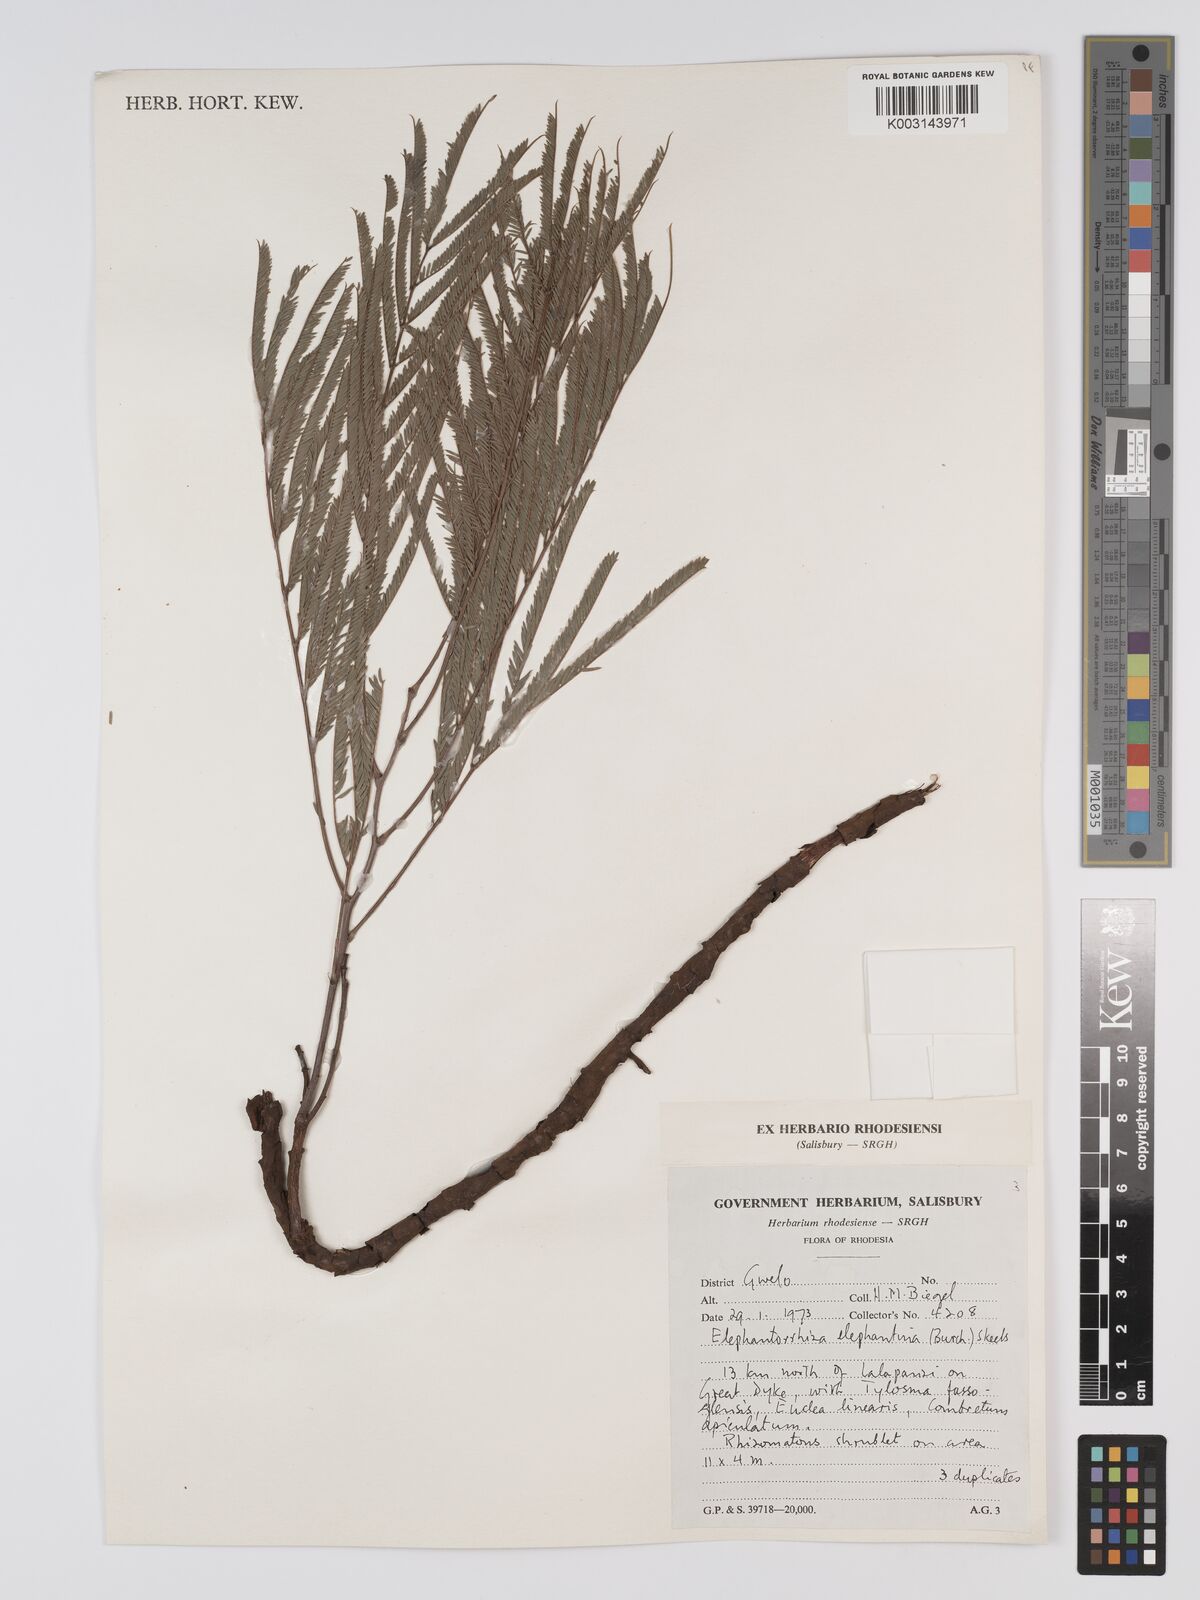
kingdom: Plantae
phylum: Tracheophyta
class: Magnoliopsida
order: Fabales
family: Fabaceae
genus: Elephantorrhiza
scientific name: Elephantorrhiza elephantina
